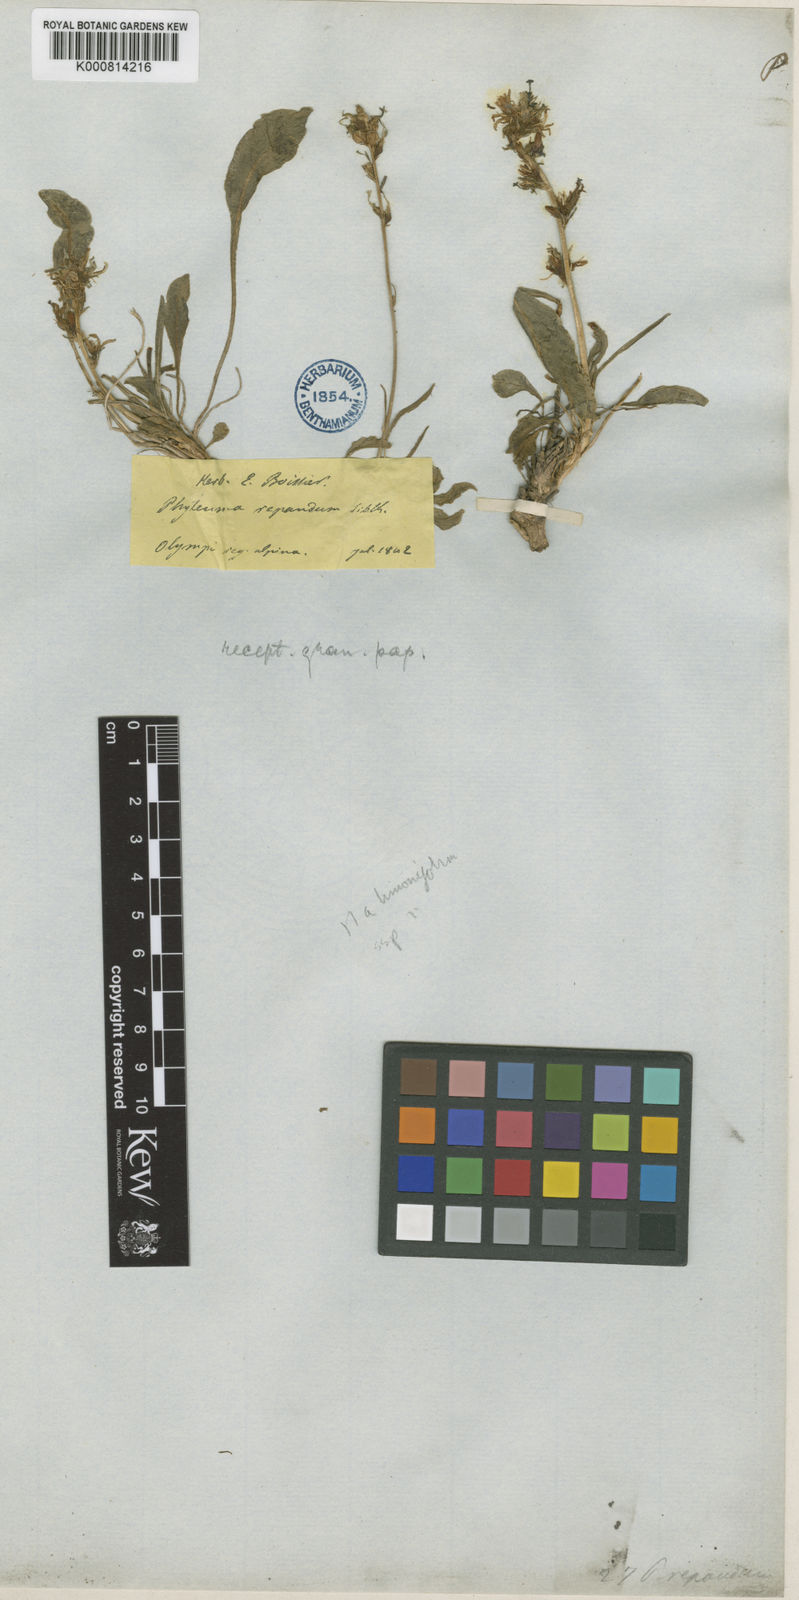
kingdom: Plantae
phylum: Tracheophyta
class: Magnoliopsida
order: Asterales
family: Campanulaceae
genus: Asyneuma
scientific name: Asyneuma limonifolium
